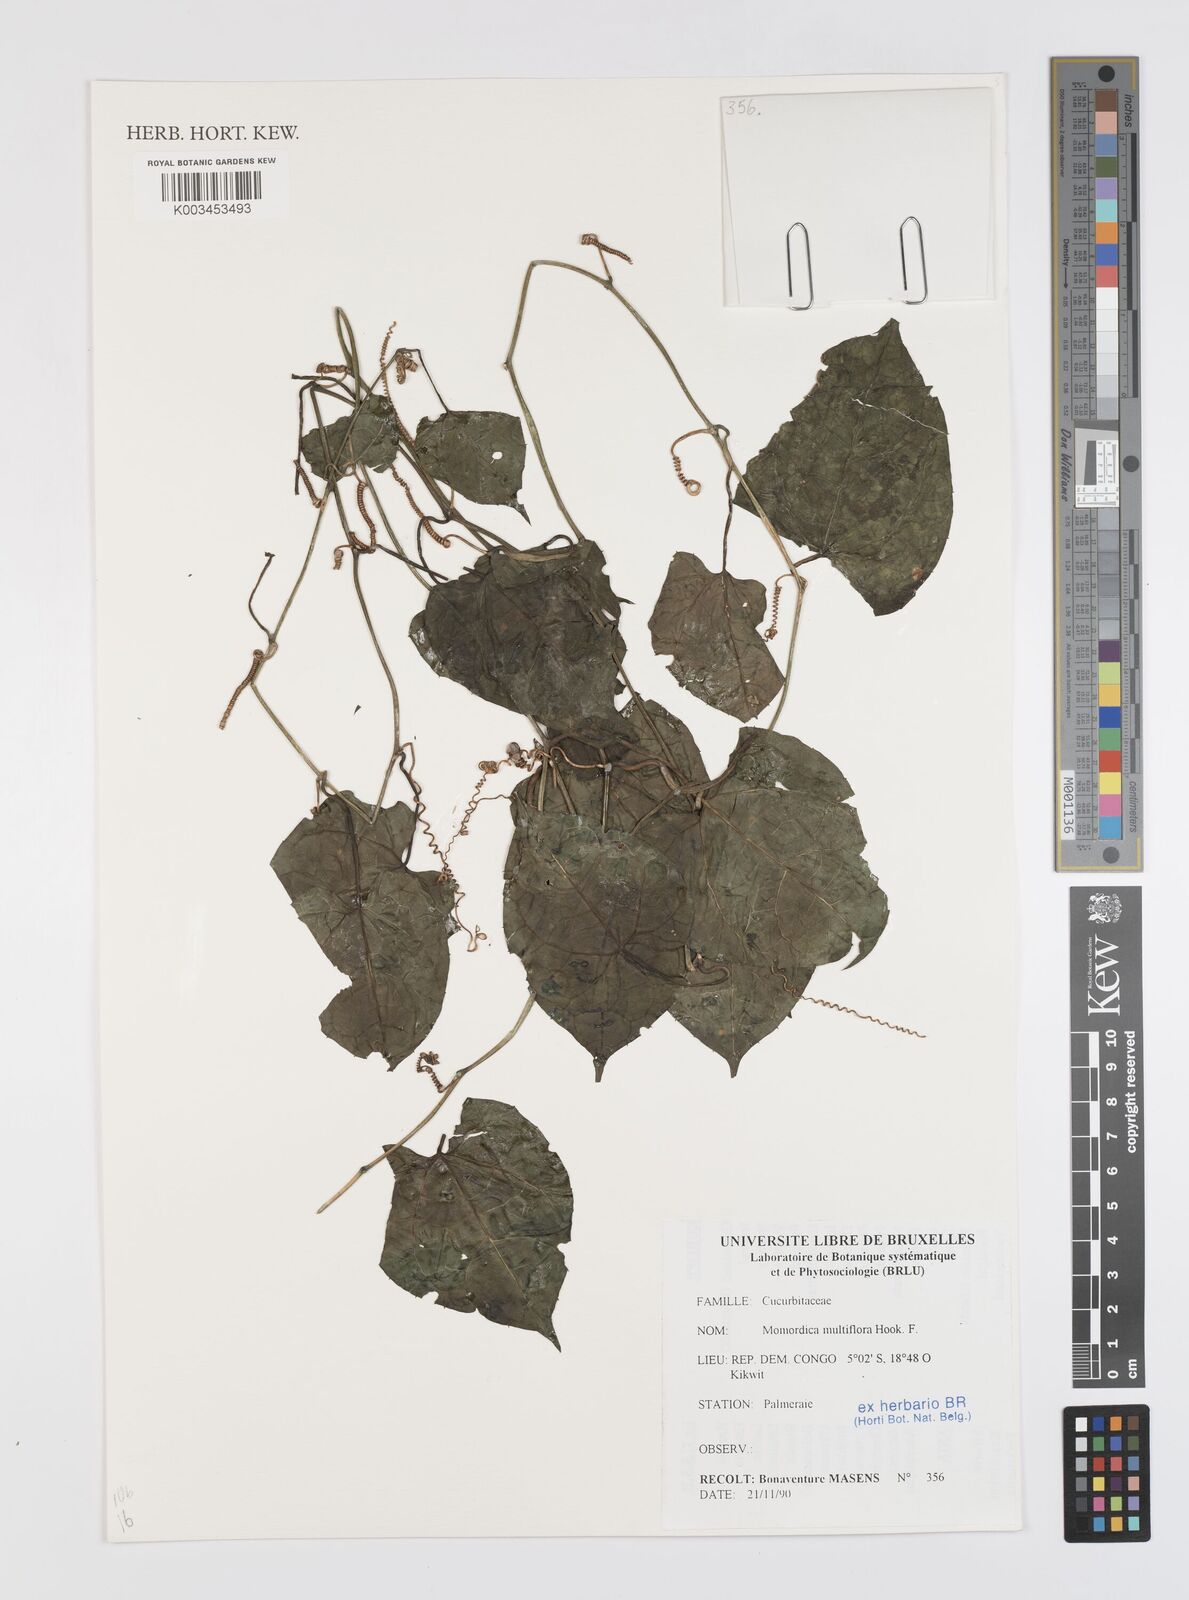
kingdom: Plantae
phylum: Tracheophyta
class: Magnoliopsida
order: Cucurbitales
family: Cucurbitaceae
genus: Momordica
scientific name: Momordica multiflora
